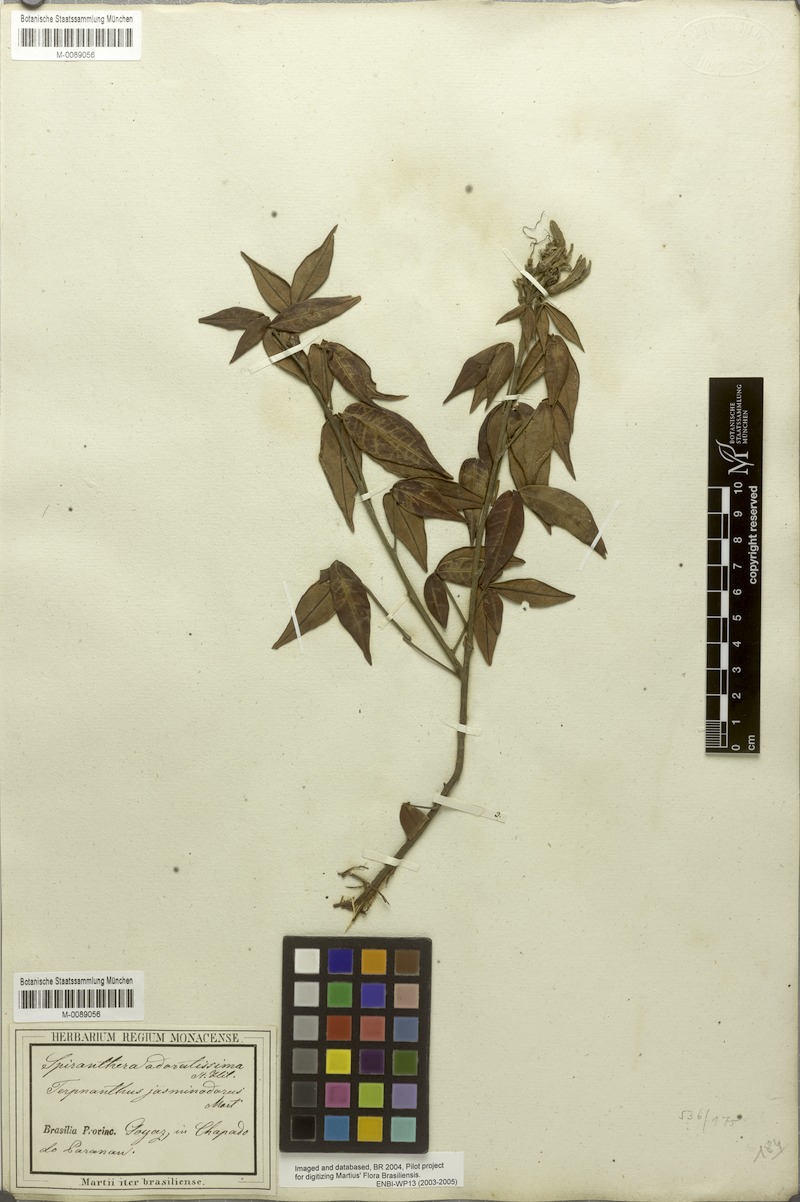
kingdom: Plantae
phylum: Tracheophyta
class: Magnoliopsida
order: Sapindales
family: Rutaceae
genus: Spiranthera
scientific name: Spiranthera odoratissima
